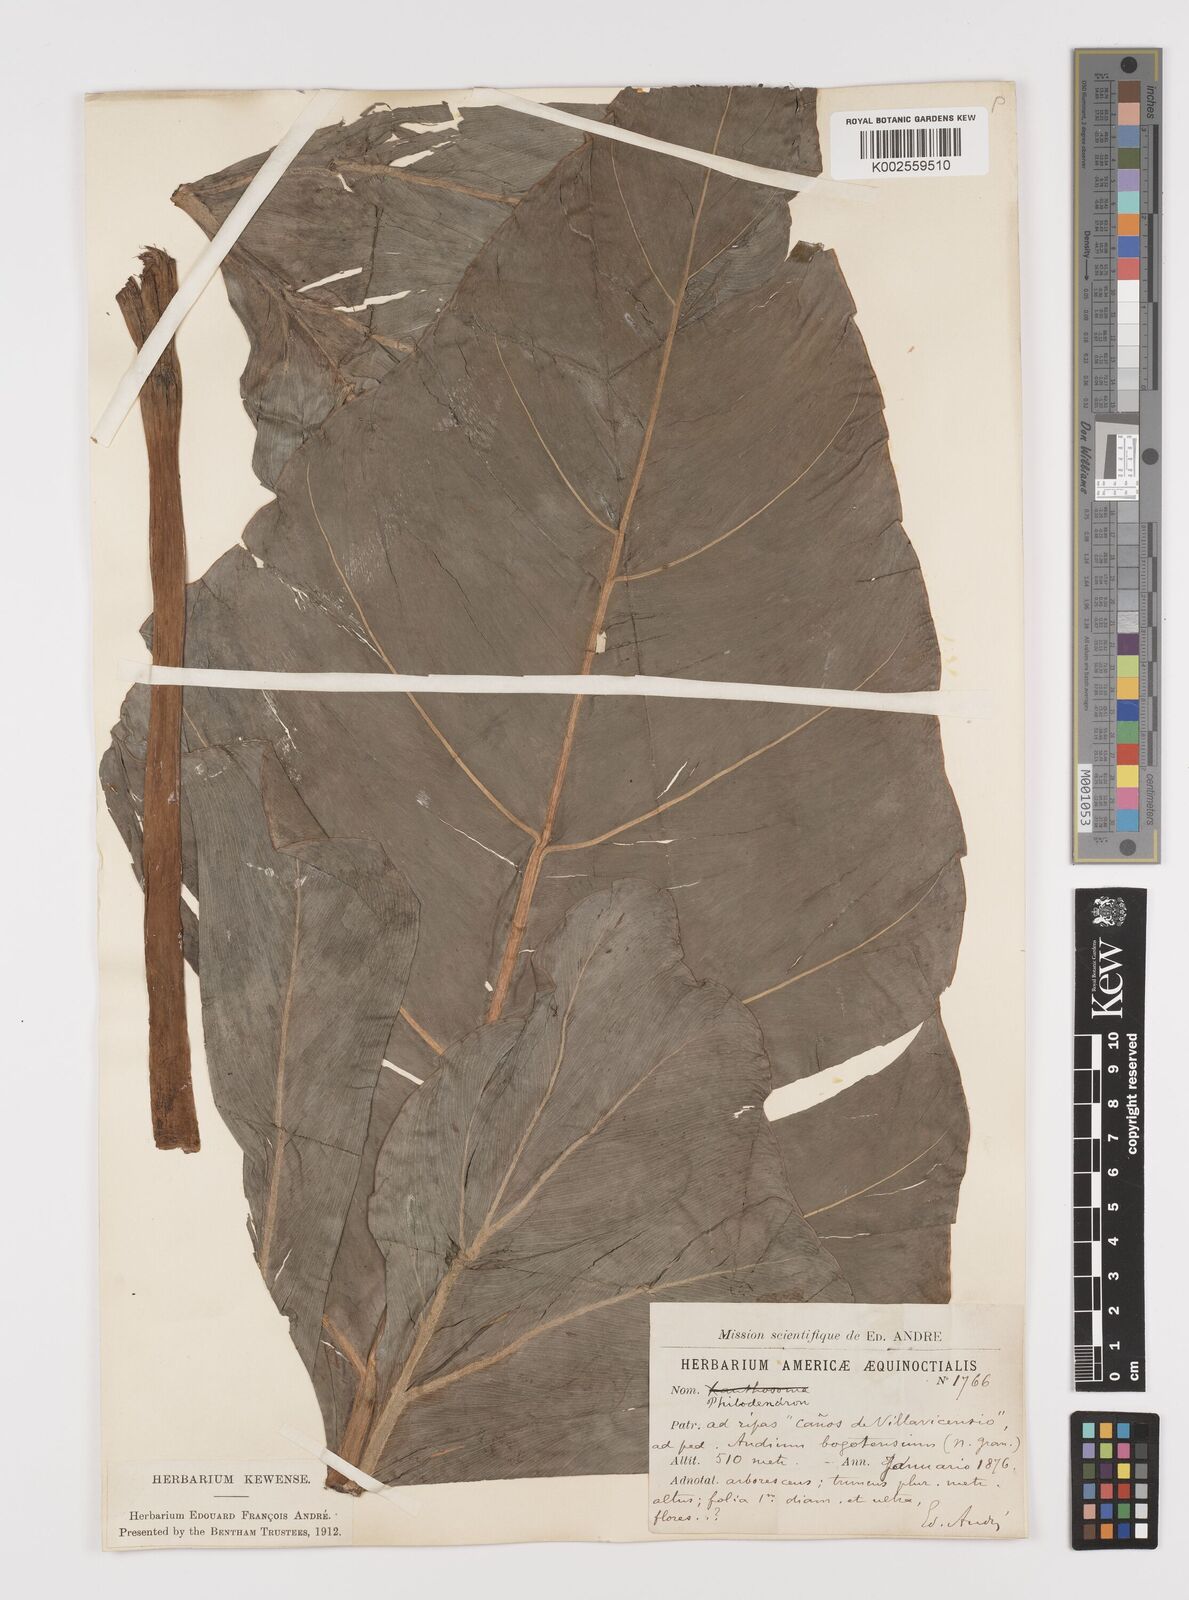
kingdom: Plantae
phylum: Tracheophyta
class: Liliopsida
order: Alismatales
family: Araceae
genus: Philodendron
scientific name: Philodendron
